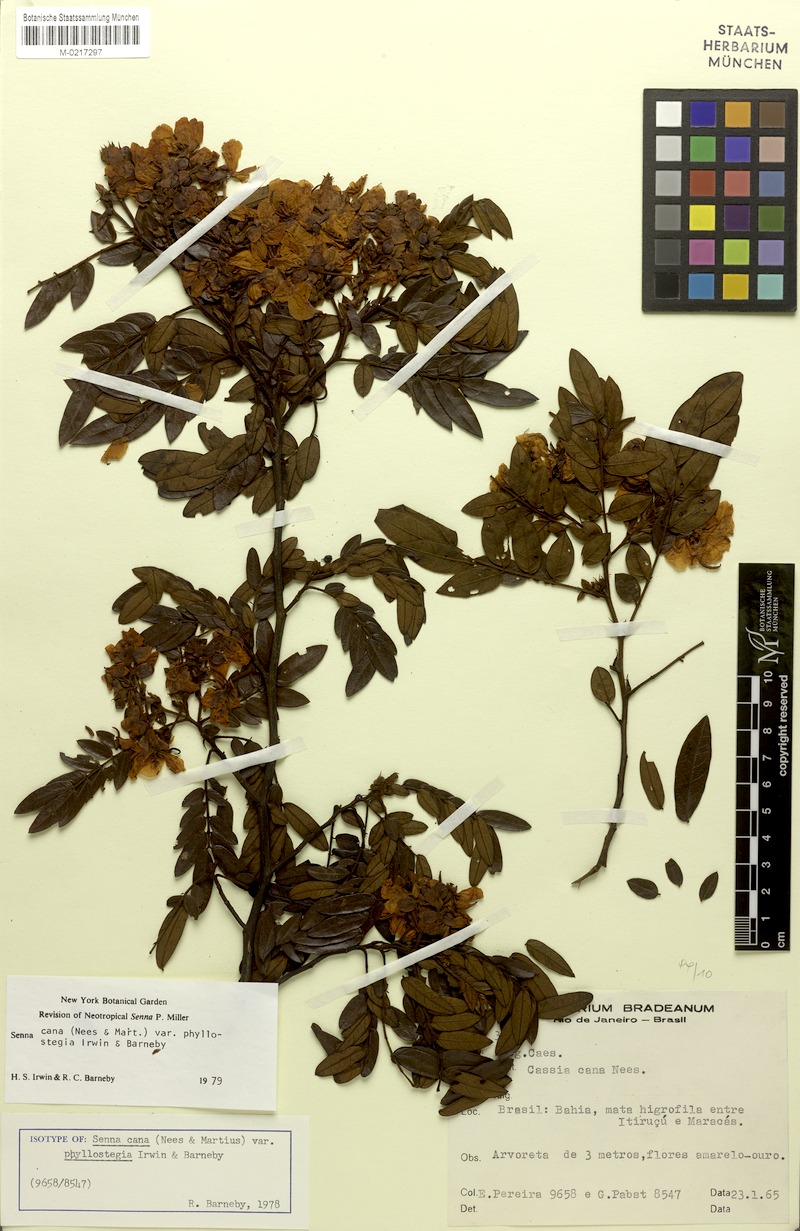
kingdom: Plantae
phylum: Tracheophyta
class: Magnoliopsida
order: Fabales
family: Fabaceae
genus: Senna
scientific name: Senna cana
